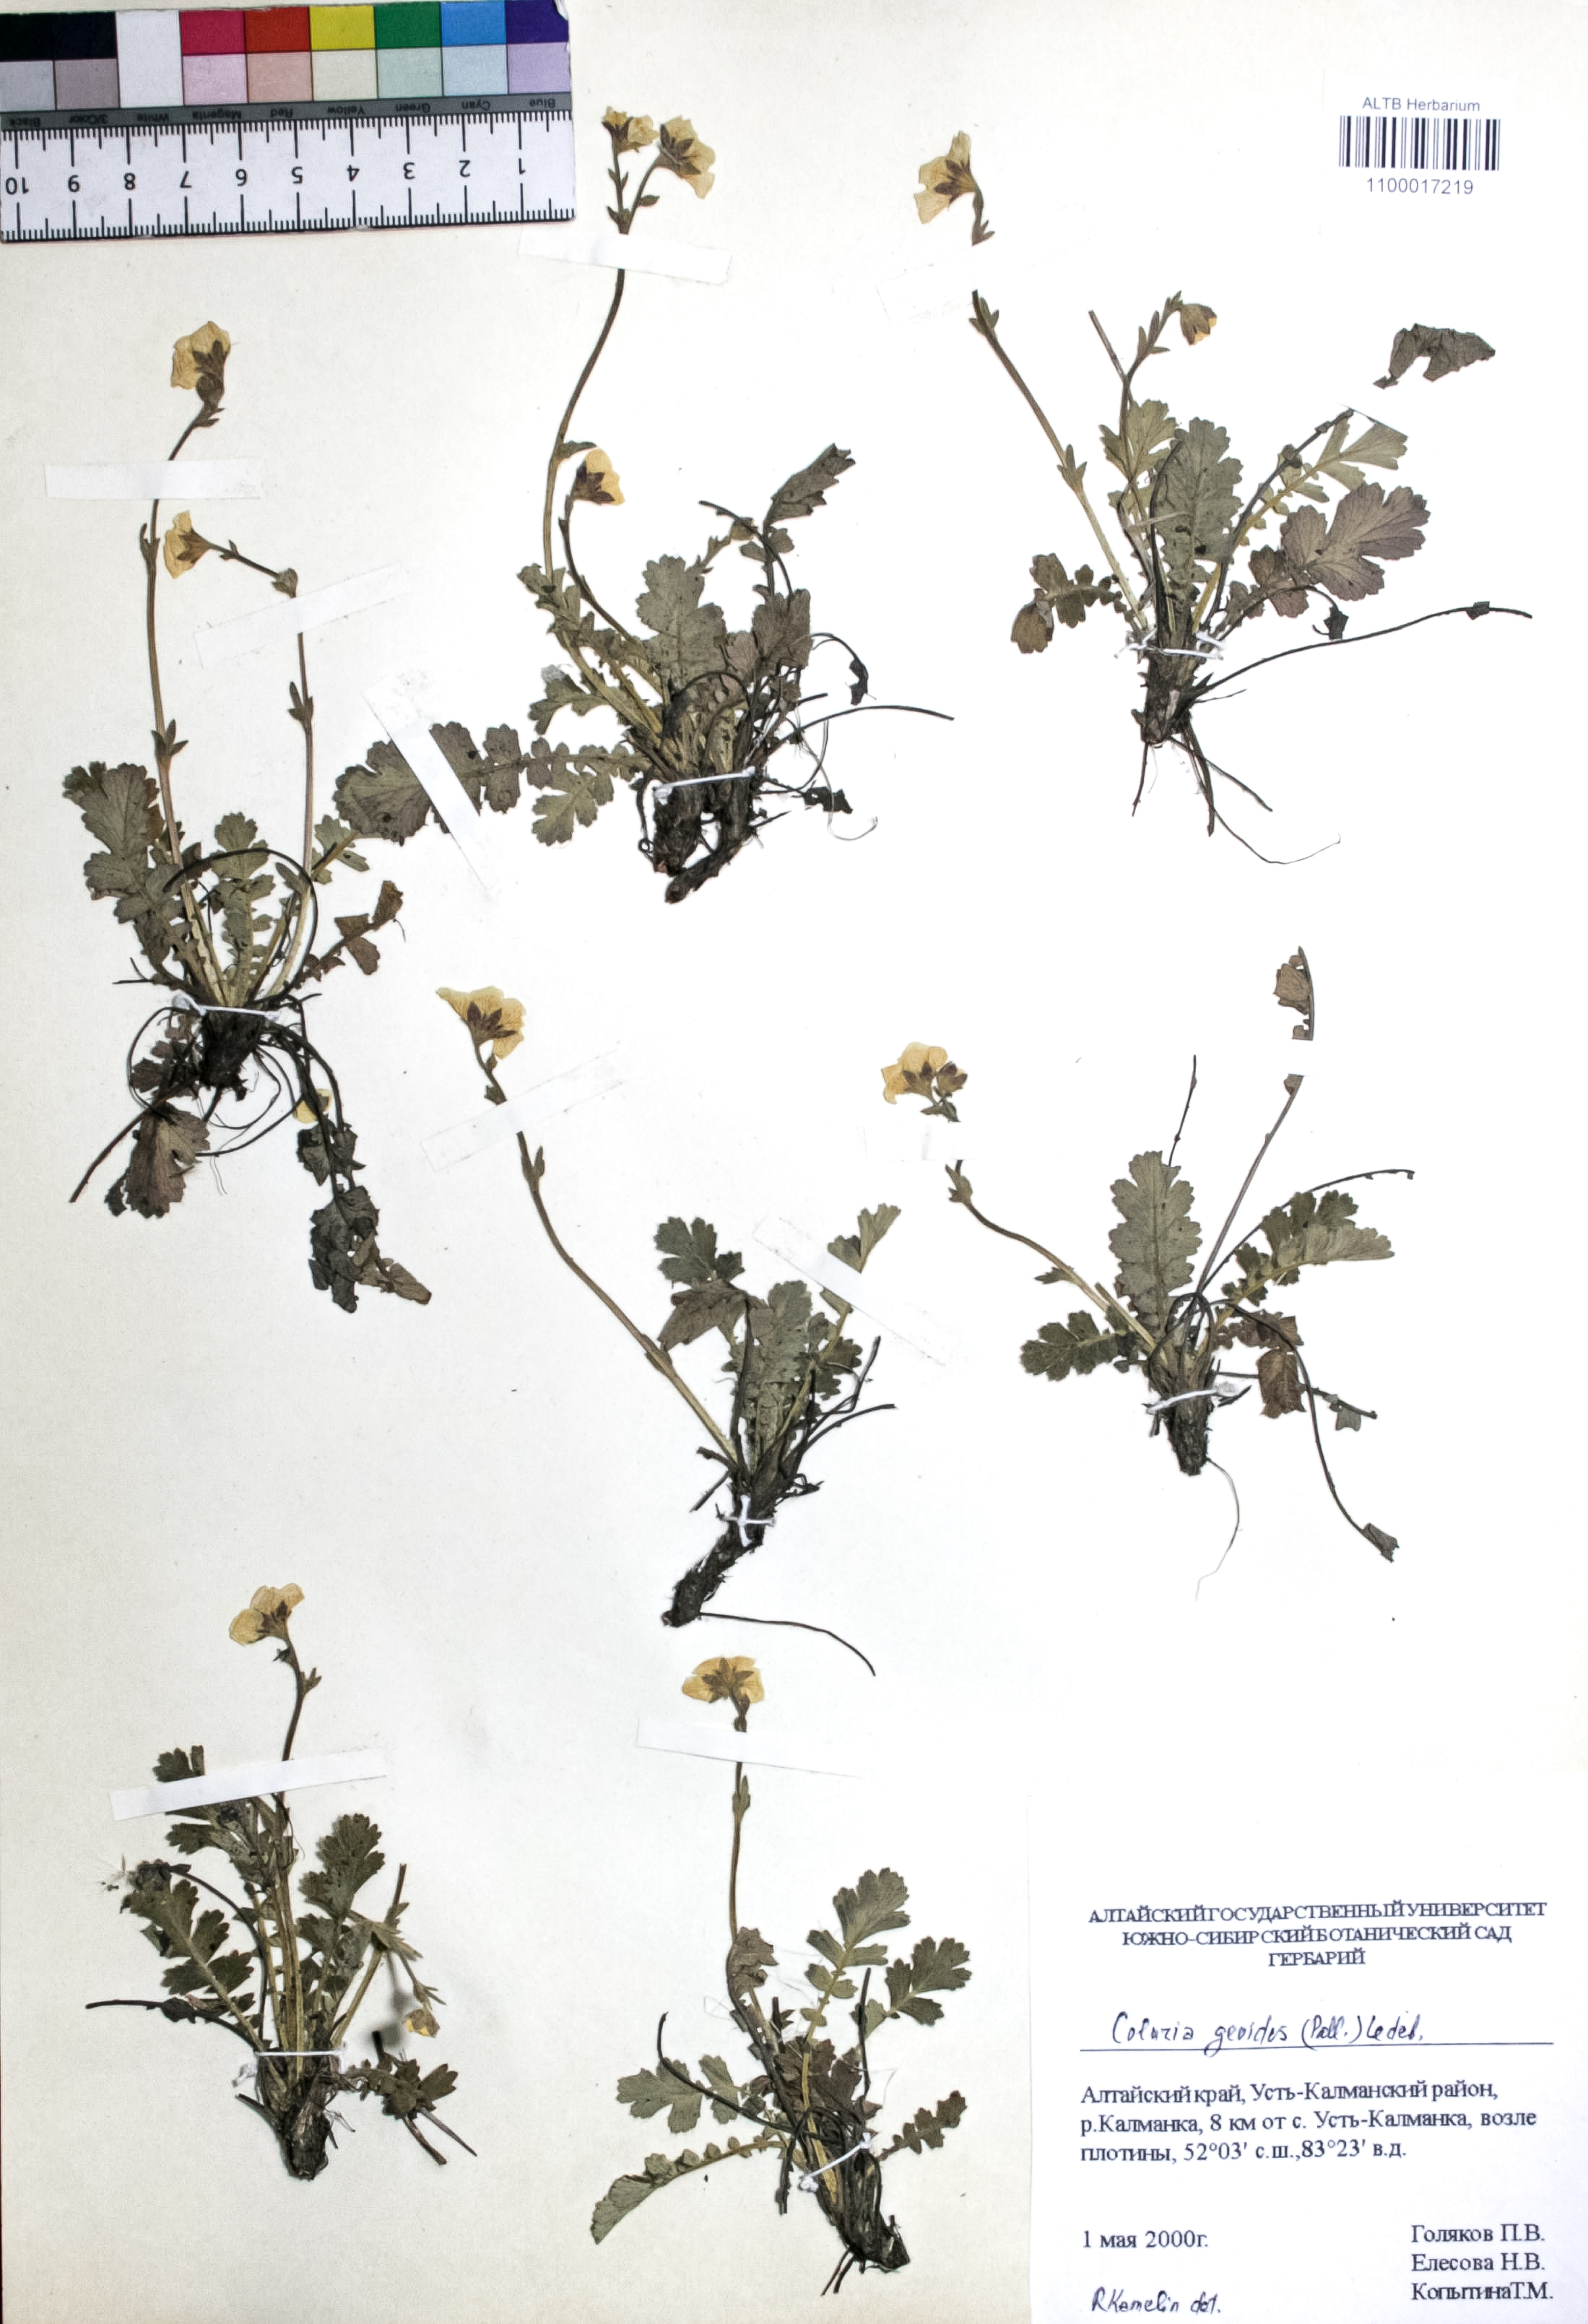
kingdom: Plantae
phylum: Tracheophyta
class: Magnoliopsida
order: Rosales
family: Rosaceae
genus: Geum
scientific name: Geum geoides
